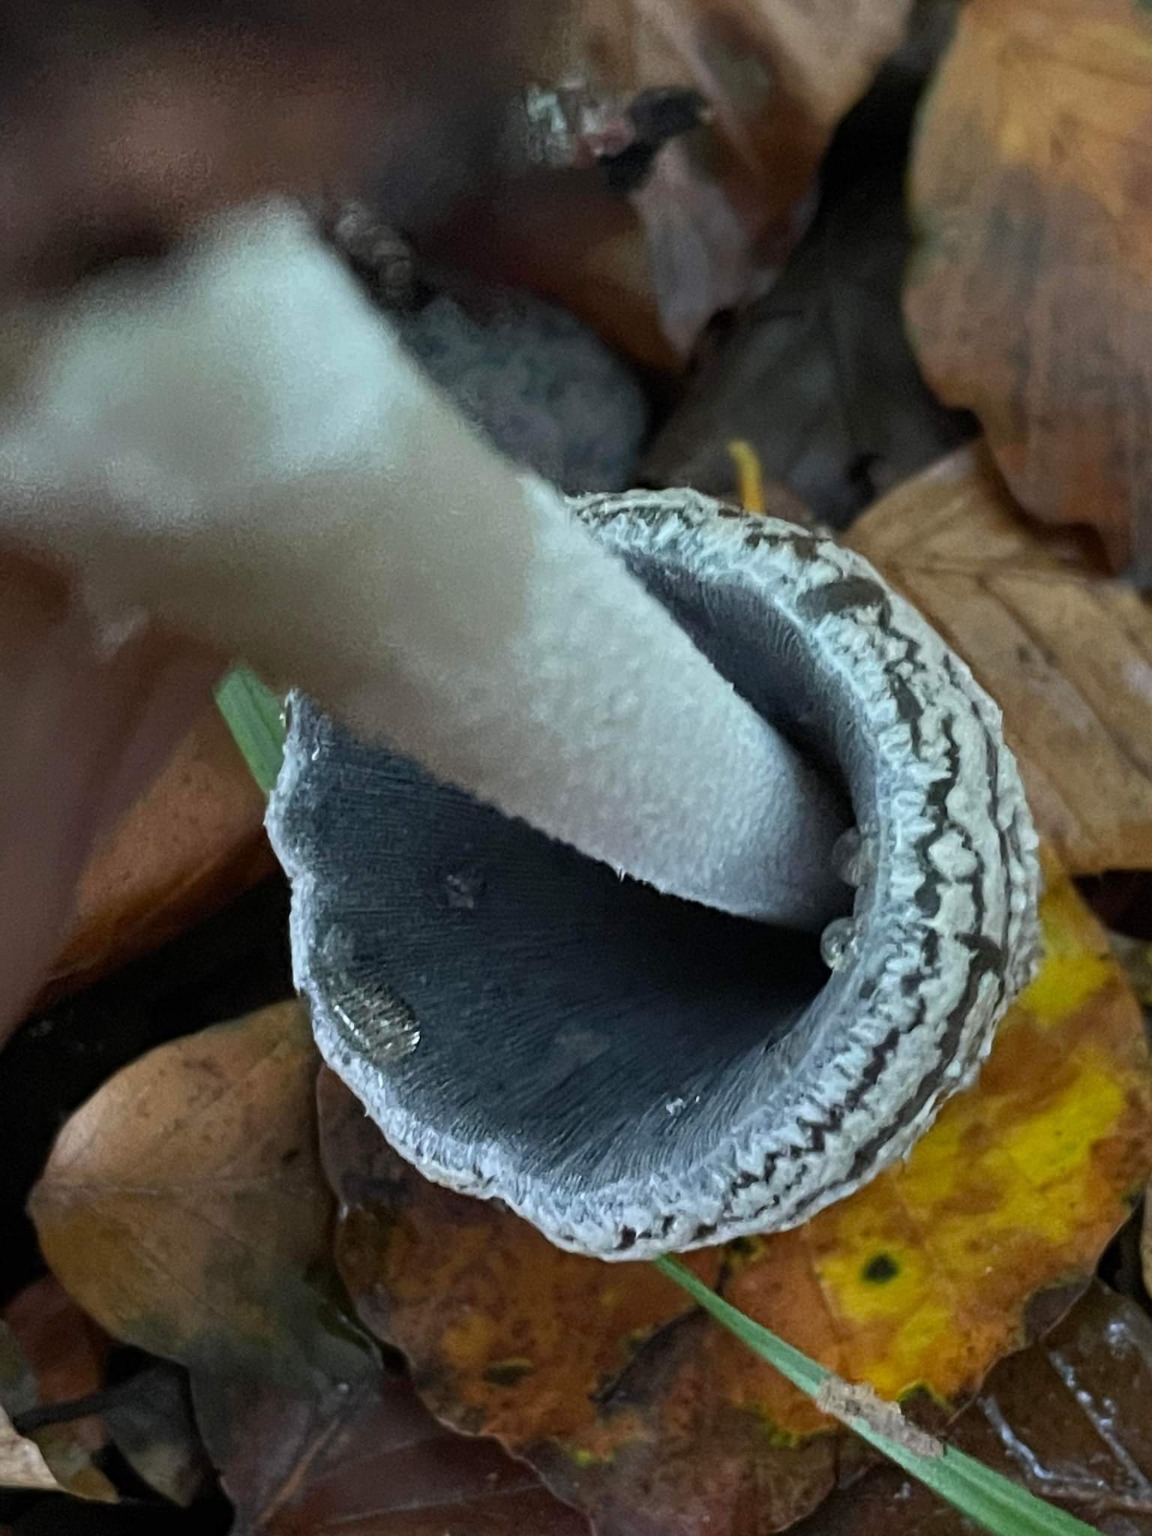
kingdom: Fungi
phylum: Basidiomycota
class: Agaricomycetes
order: Agaricales
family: Psathyrellaceae
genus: Coprinopsis
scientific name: Coprinopsis picacea
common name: Skade-blækhat
